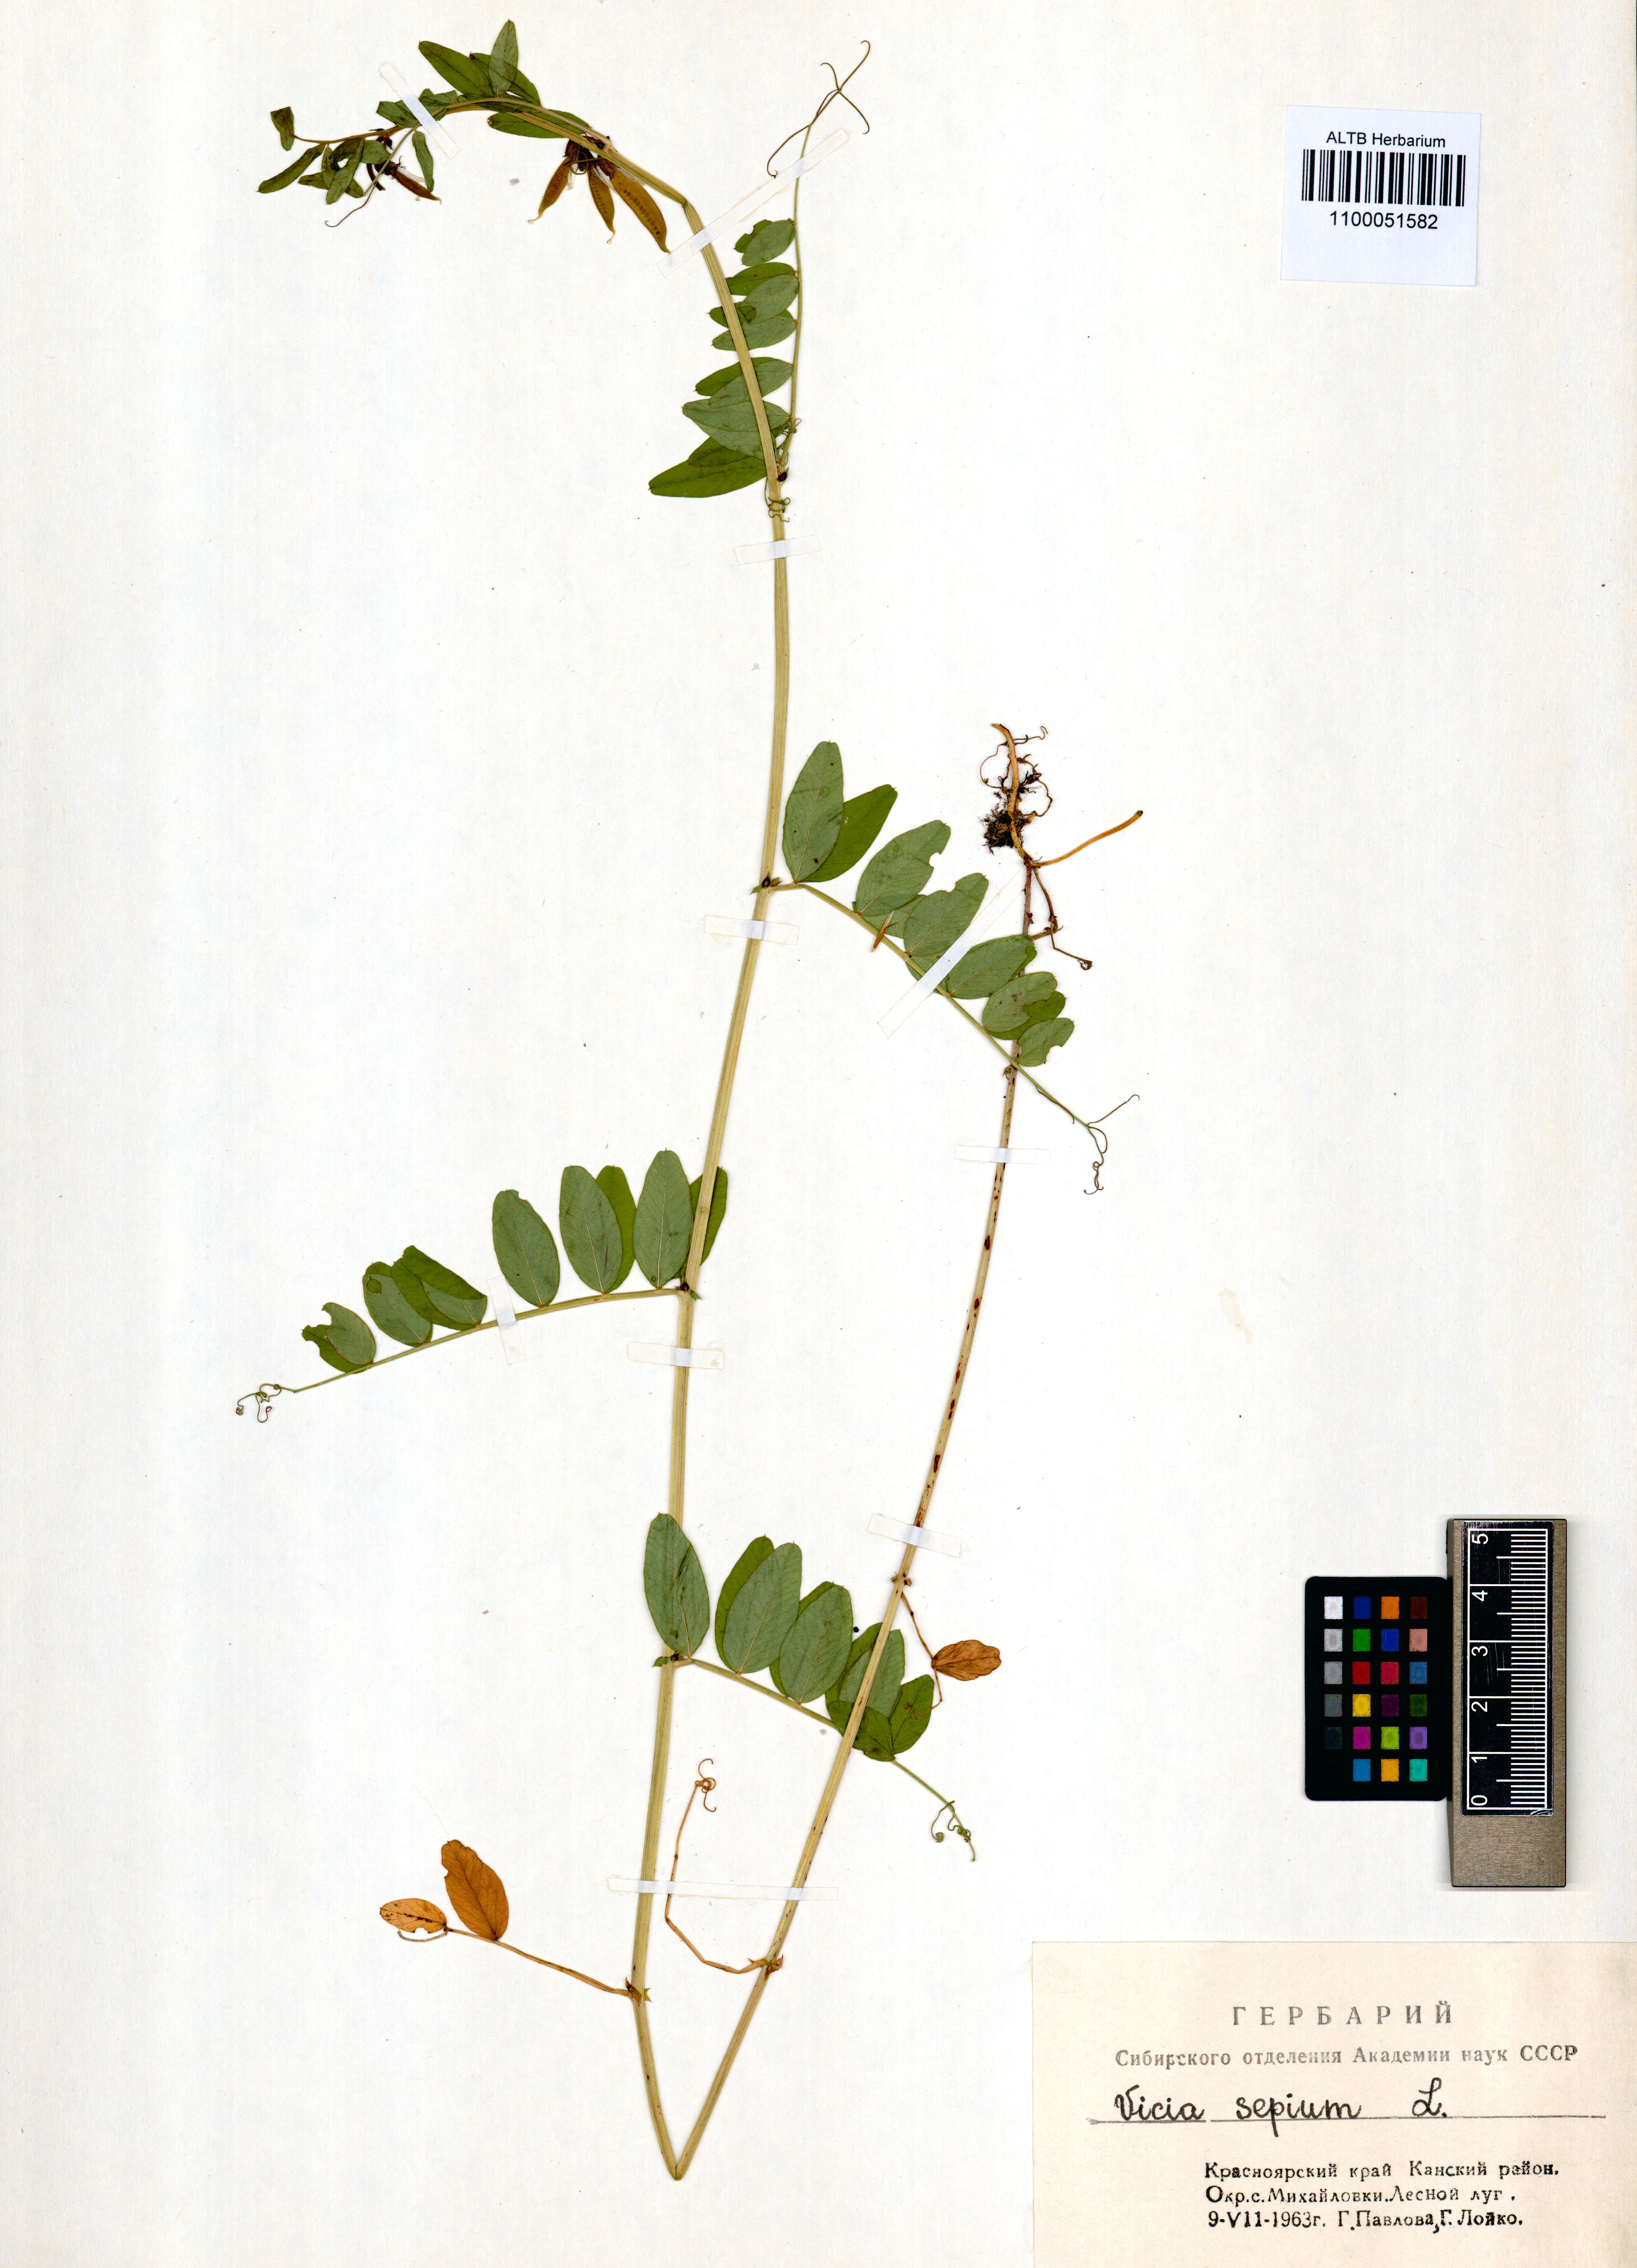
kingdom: Plantae
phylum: Tracheophyta
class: Magnoliopsida
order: Fabales
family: Fabaceae
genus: Vicia
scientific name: Vicia sepium
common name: Bush vetch
